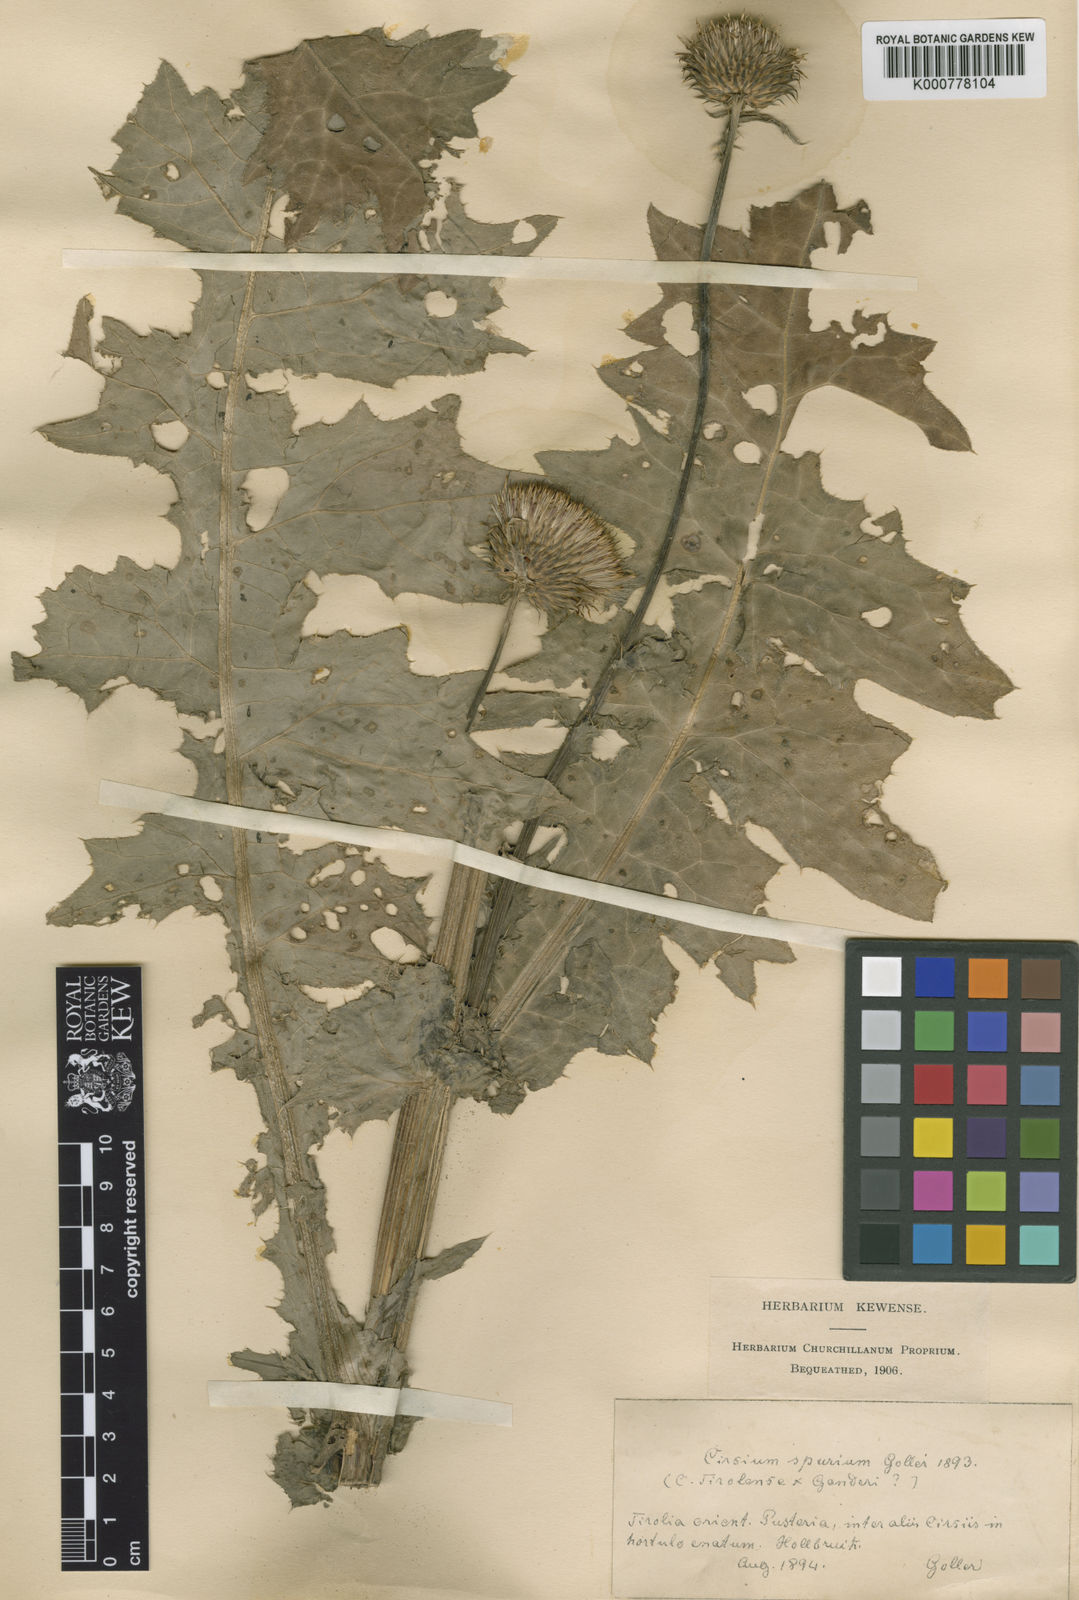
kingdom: Plantae
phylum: Tracheophyta
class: Magnoliopsida
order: Asterales
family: Asteraceae
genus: Cirsium
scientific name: Cirsium
